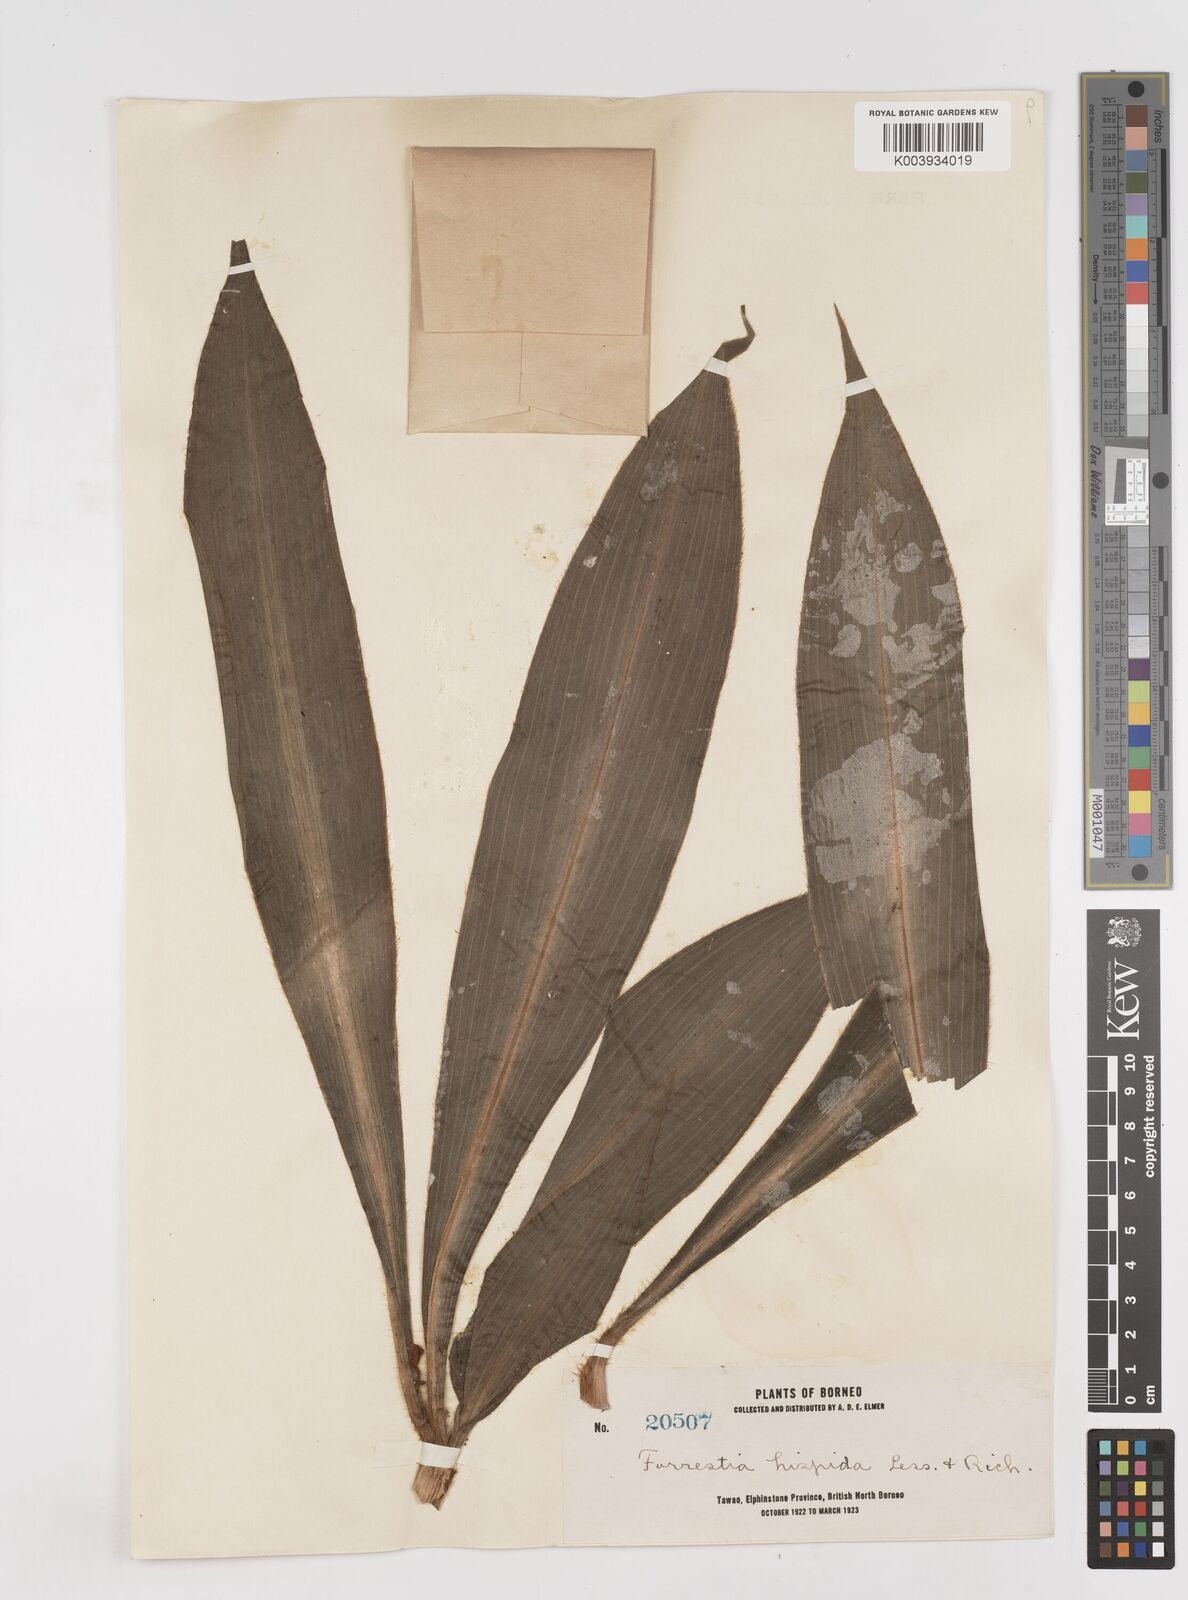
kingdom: Plantae
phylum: Tracheophyta
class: Liliopsida
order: Commelinales
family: Commelinaceae
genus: Amischotolype
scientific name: Amischotolype marginata
